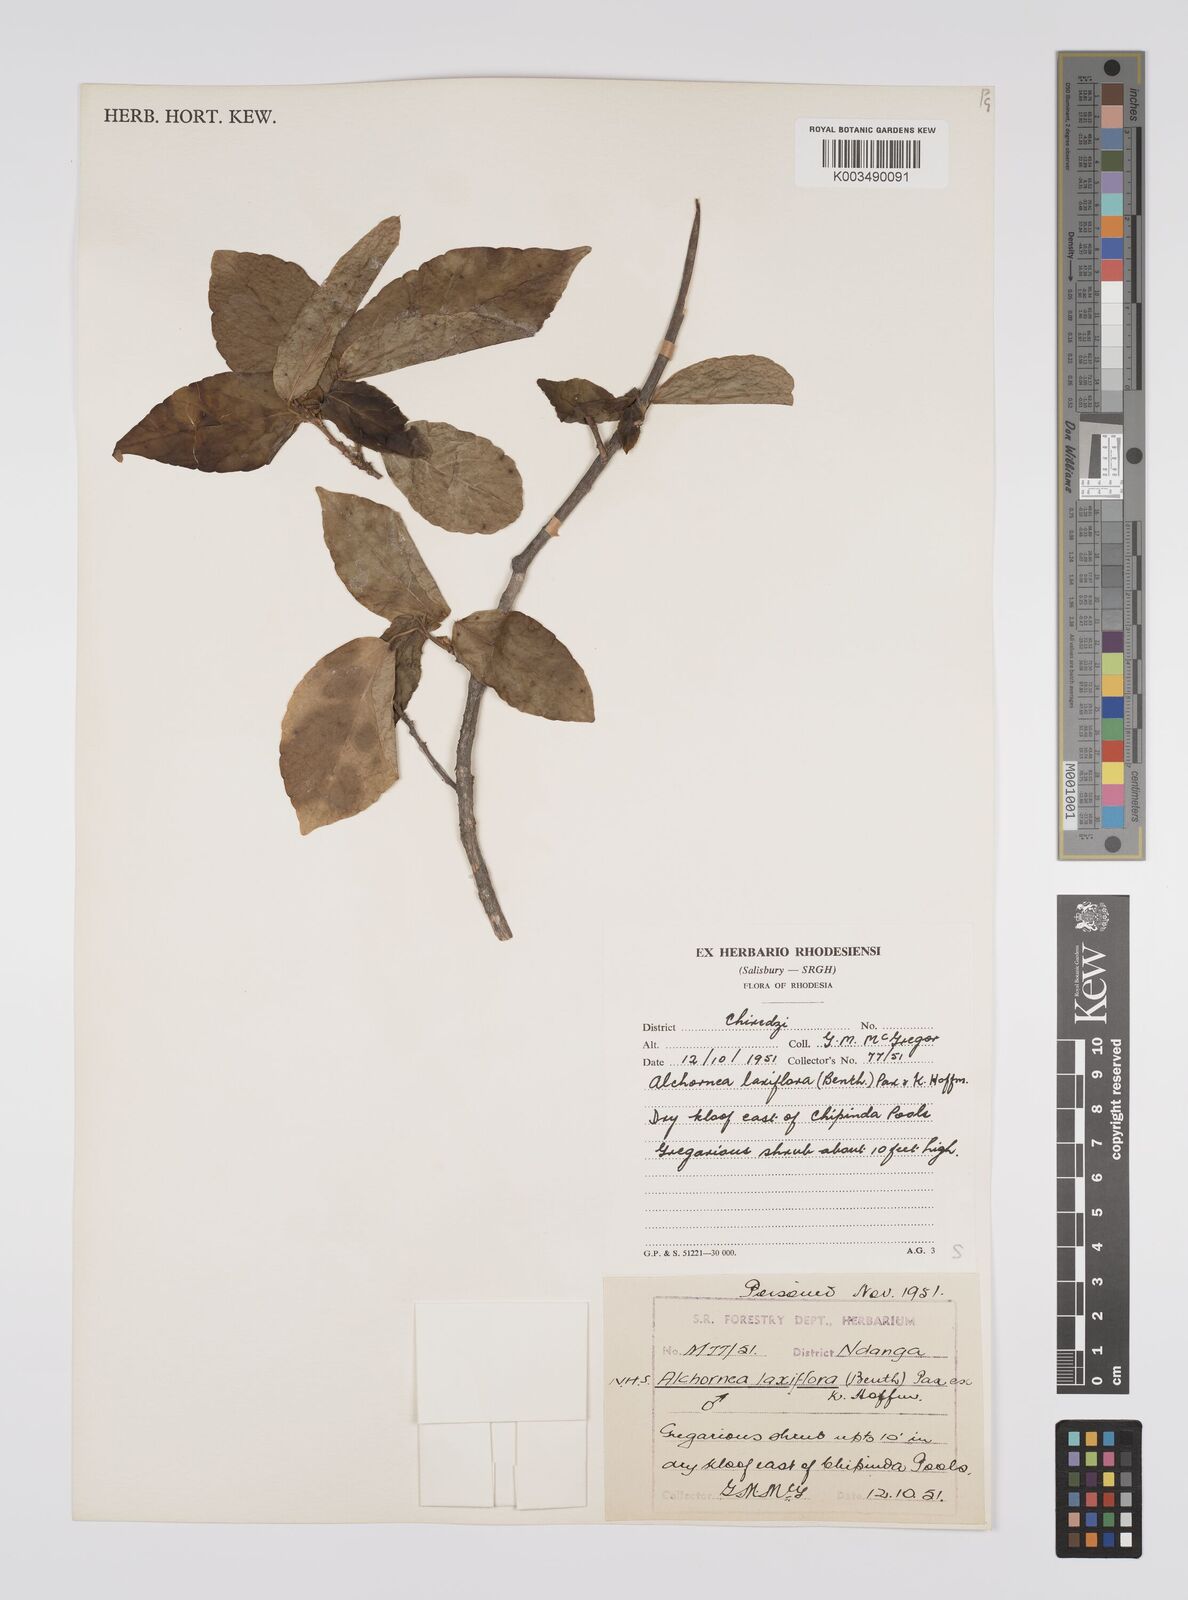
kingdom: Plantae
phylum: Tracheophyta
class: Magnoliopsida
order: Malpighiales
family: Euphorbiaceae
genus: Alchornea
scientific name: Alchornea laxiflora
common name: Lowveld bead-string
